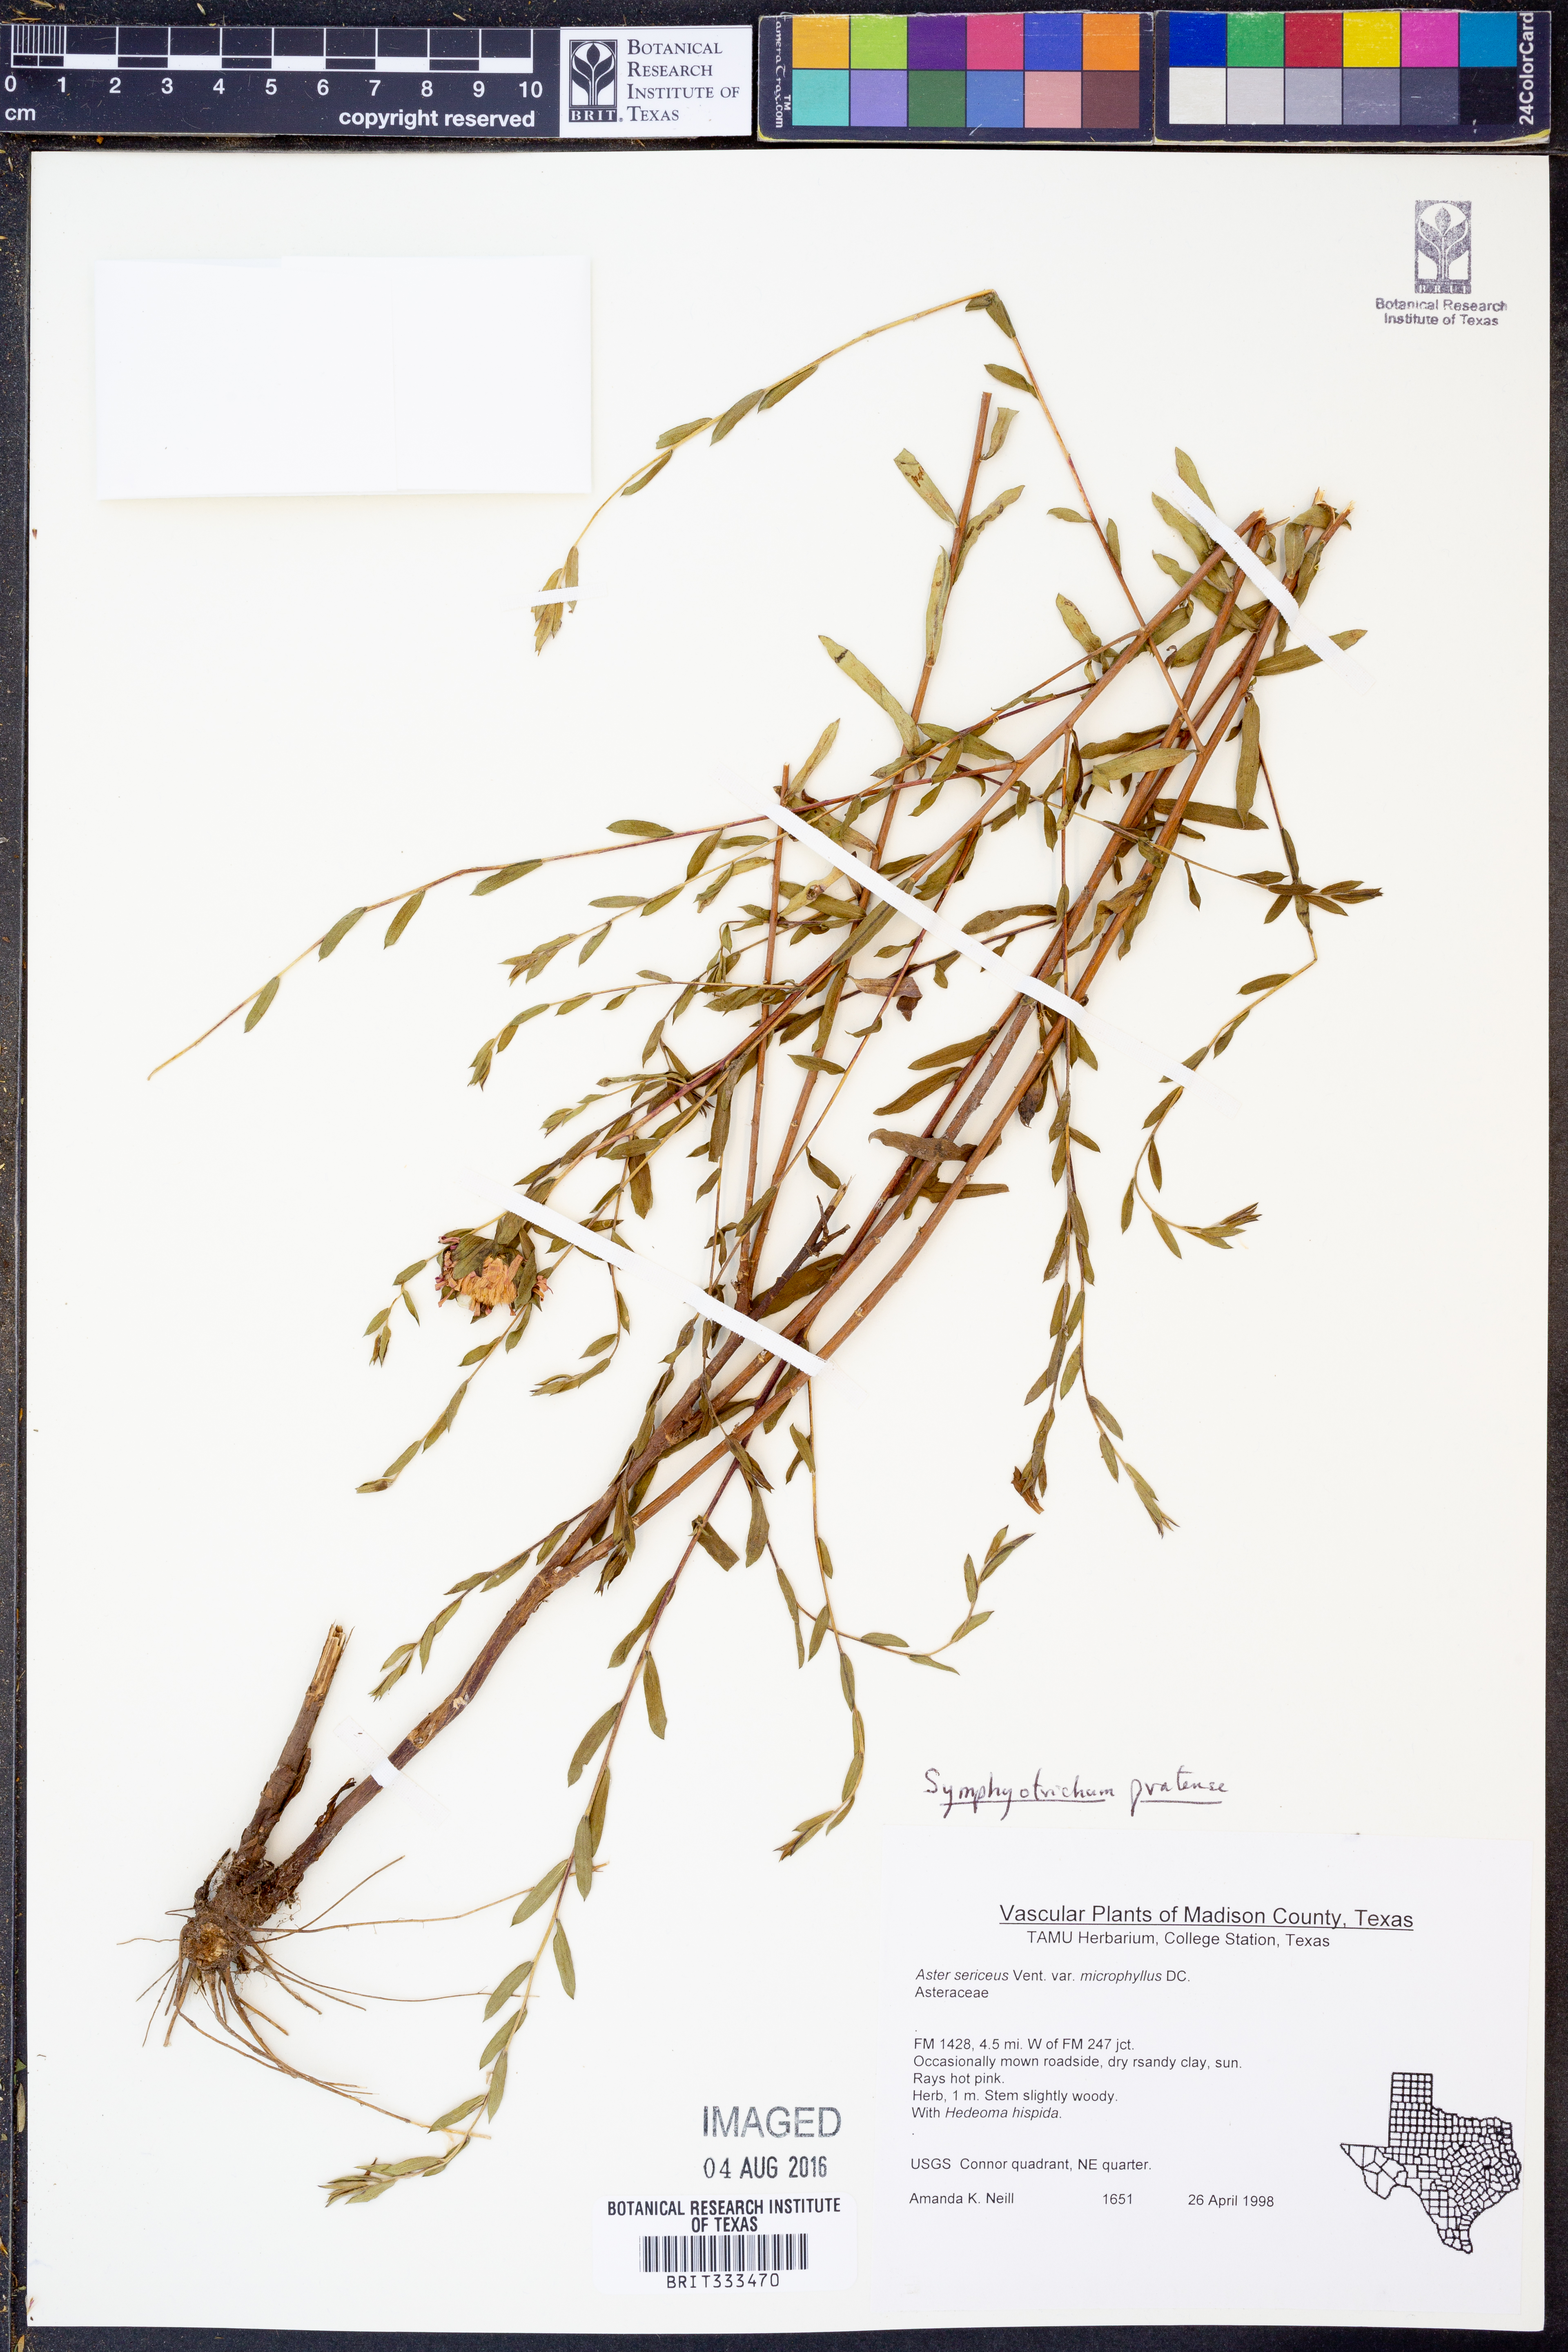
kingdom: Plantae
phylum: Tracheophyta
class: Magnoliopsida
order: Asterales
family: Asteraceae
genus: Symphyotrichum
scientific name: Symphyotrichum pratense
